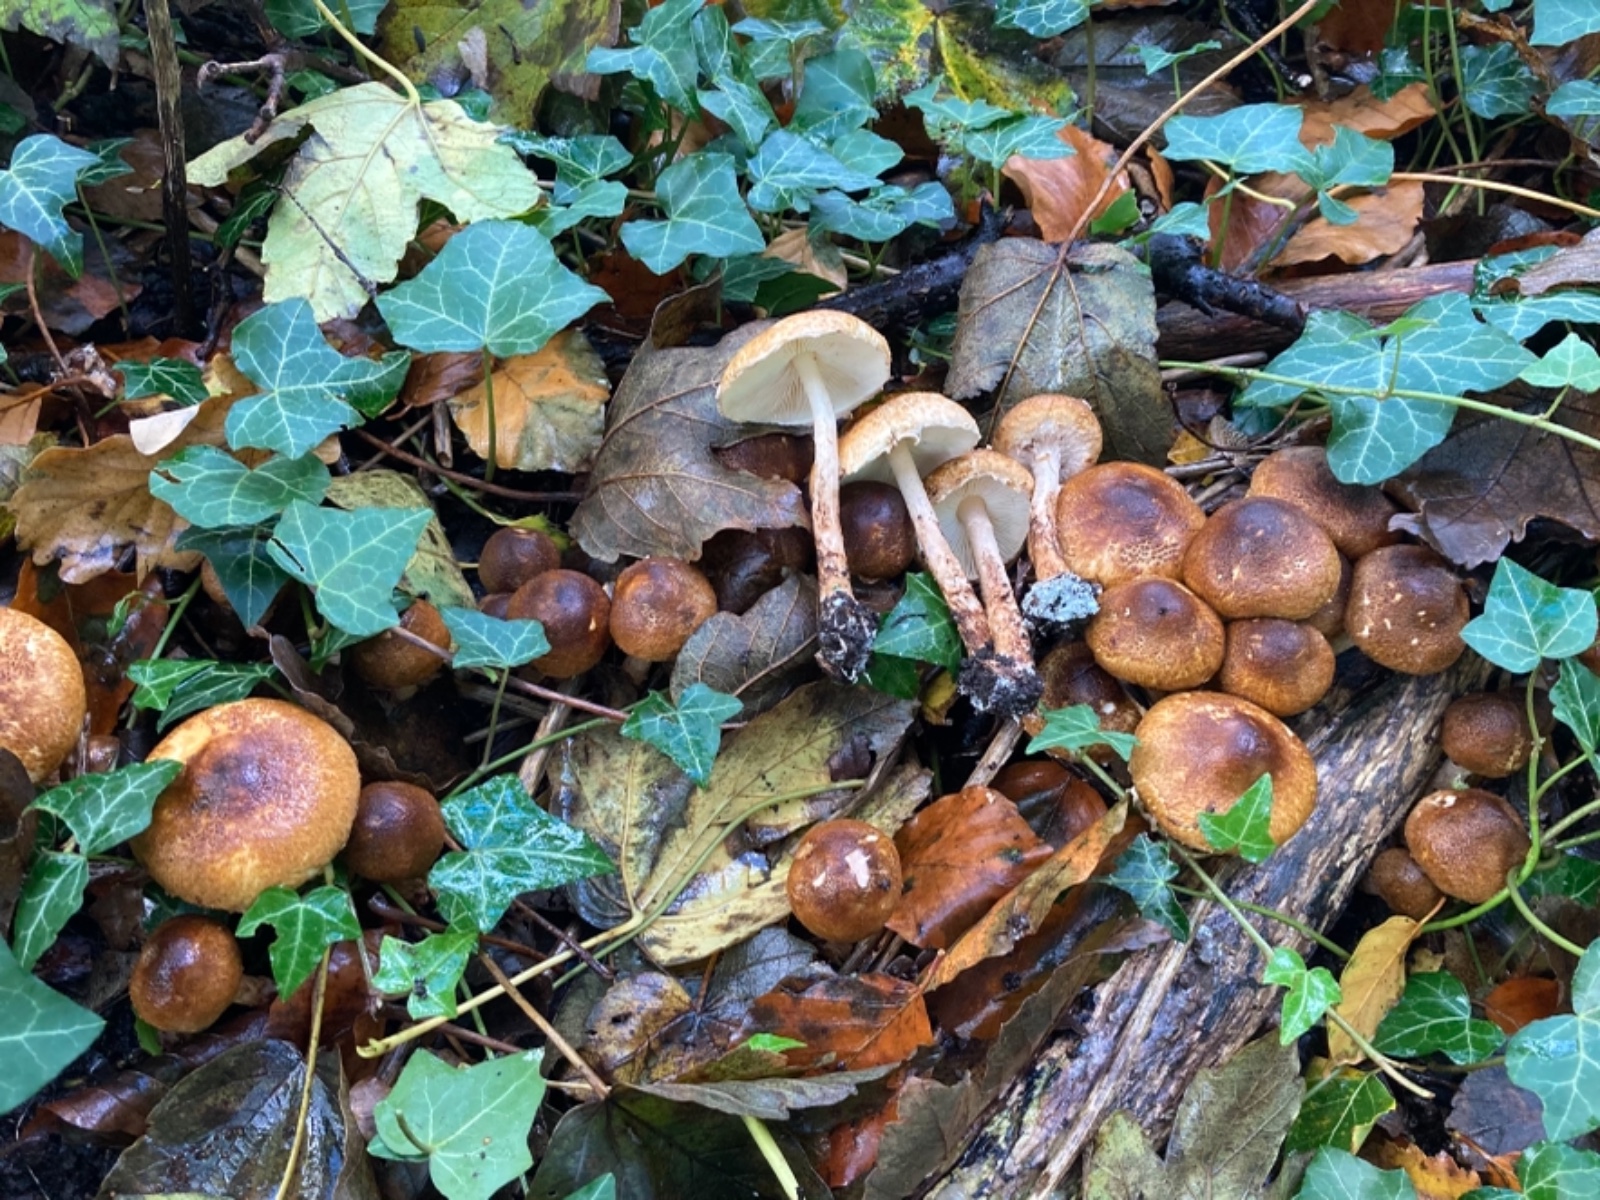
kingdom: Fungi
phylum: Basidiomycota
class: Agaricomycetes
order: Agaricales
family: Agaricaceae
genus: Leucocoprinus
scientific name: Leucocoprinus straminellus
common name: rustbrun parasolhat
